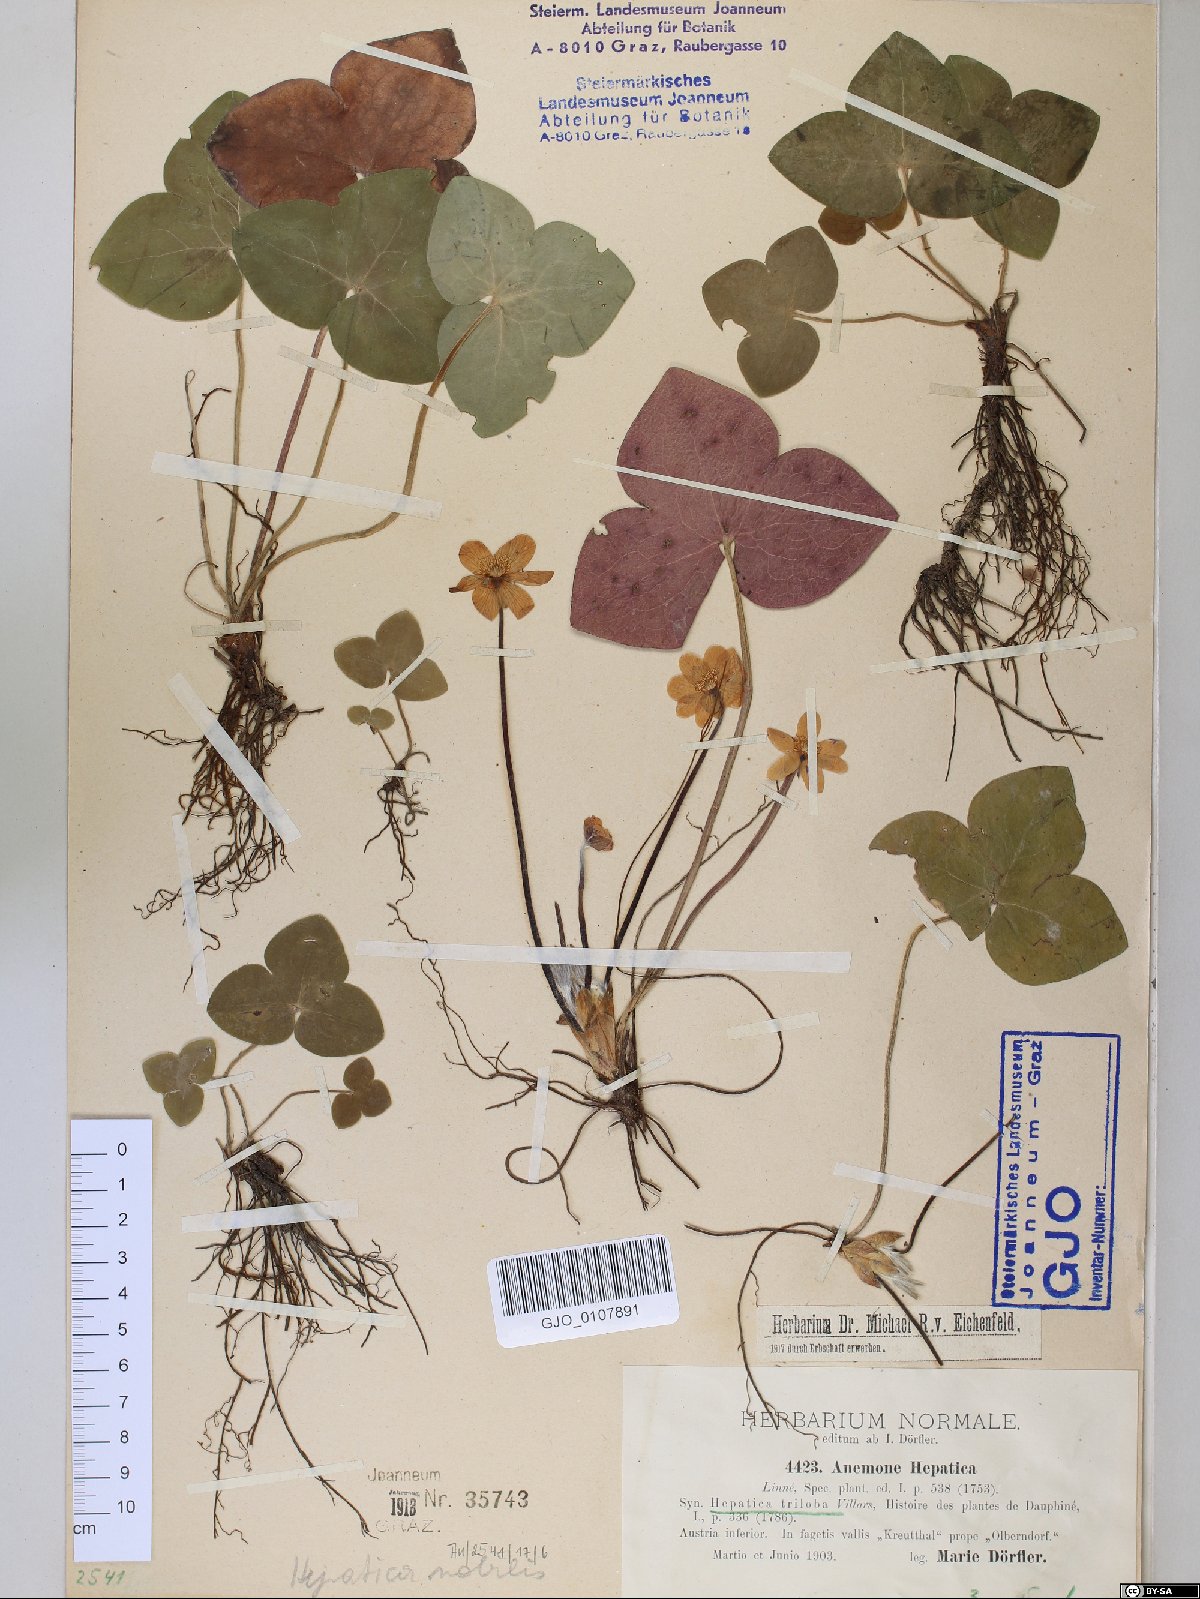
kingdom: Plantae
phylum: Tracheophyta
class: Magnoliopsida
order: Ranunculales
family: Ranunculaceae
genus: Hepatica
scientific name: Hepatica nobilis
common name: Liverleaf
